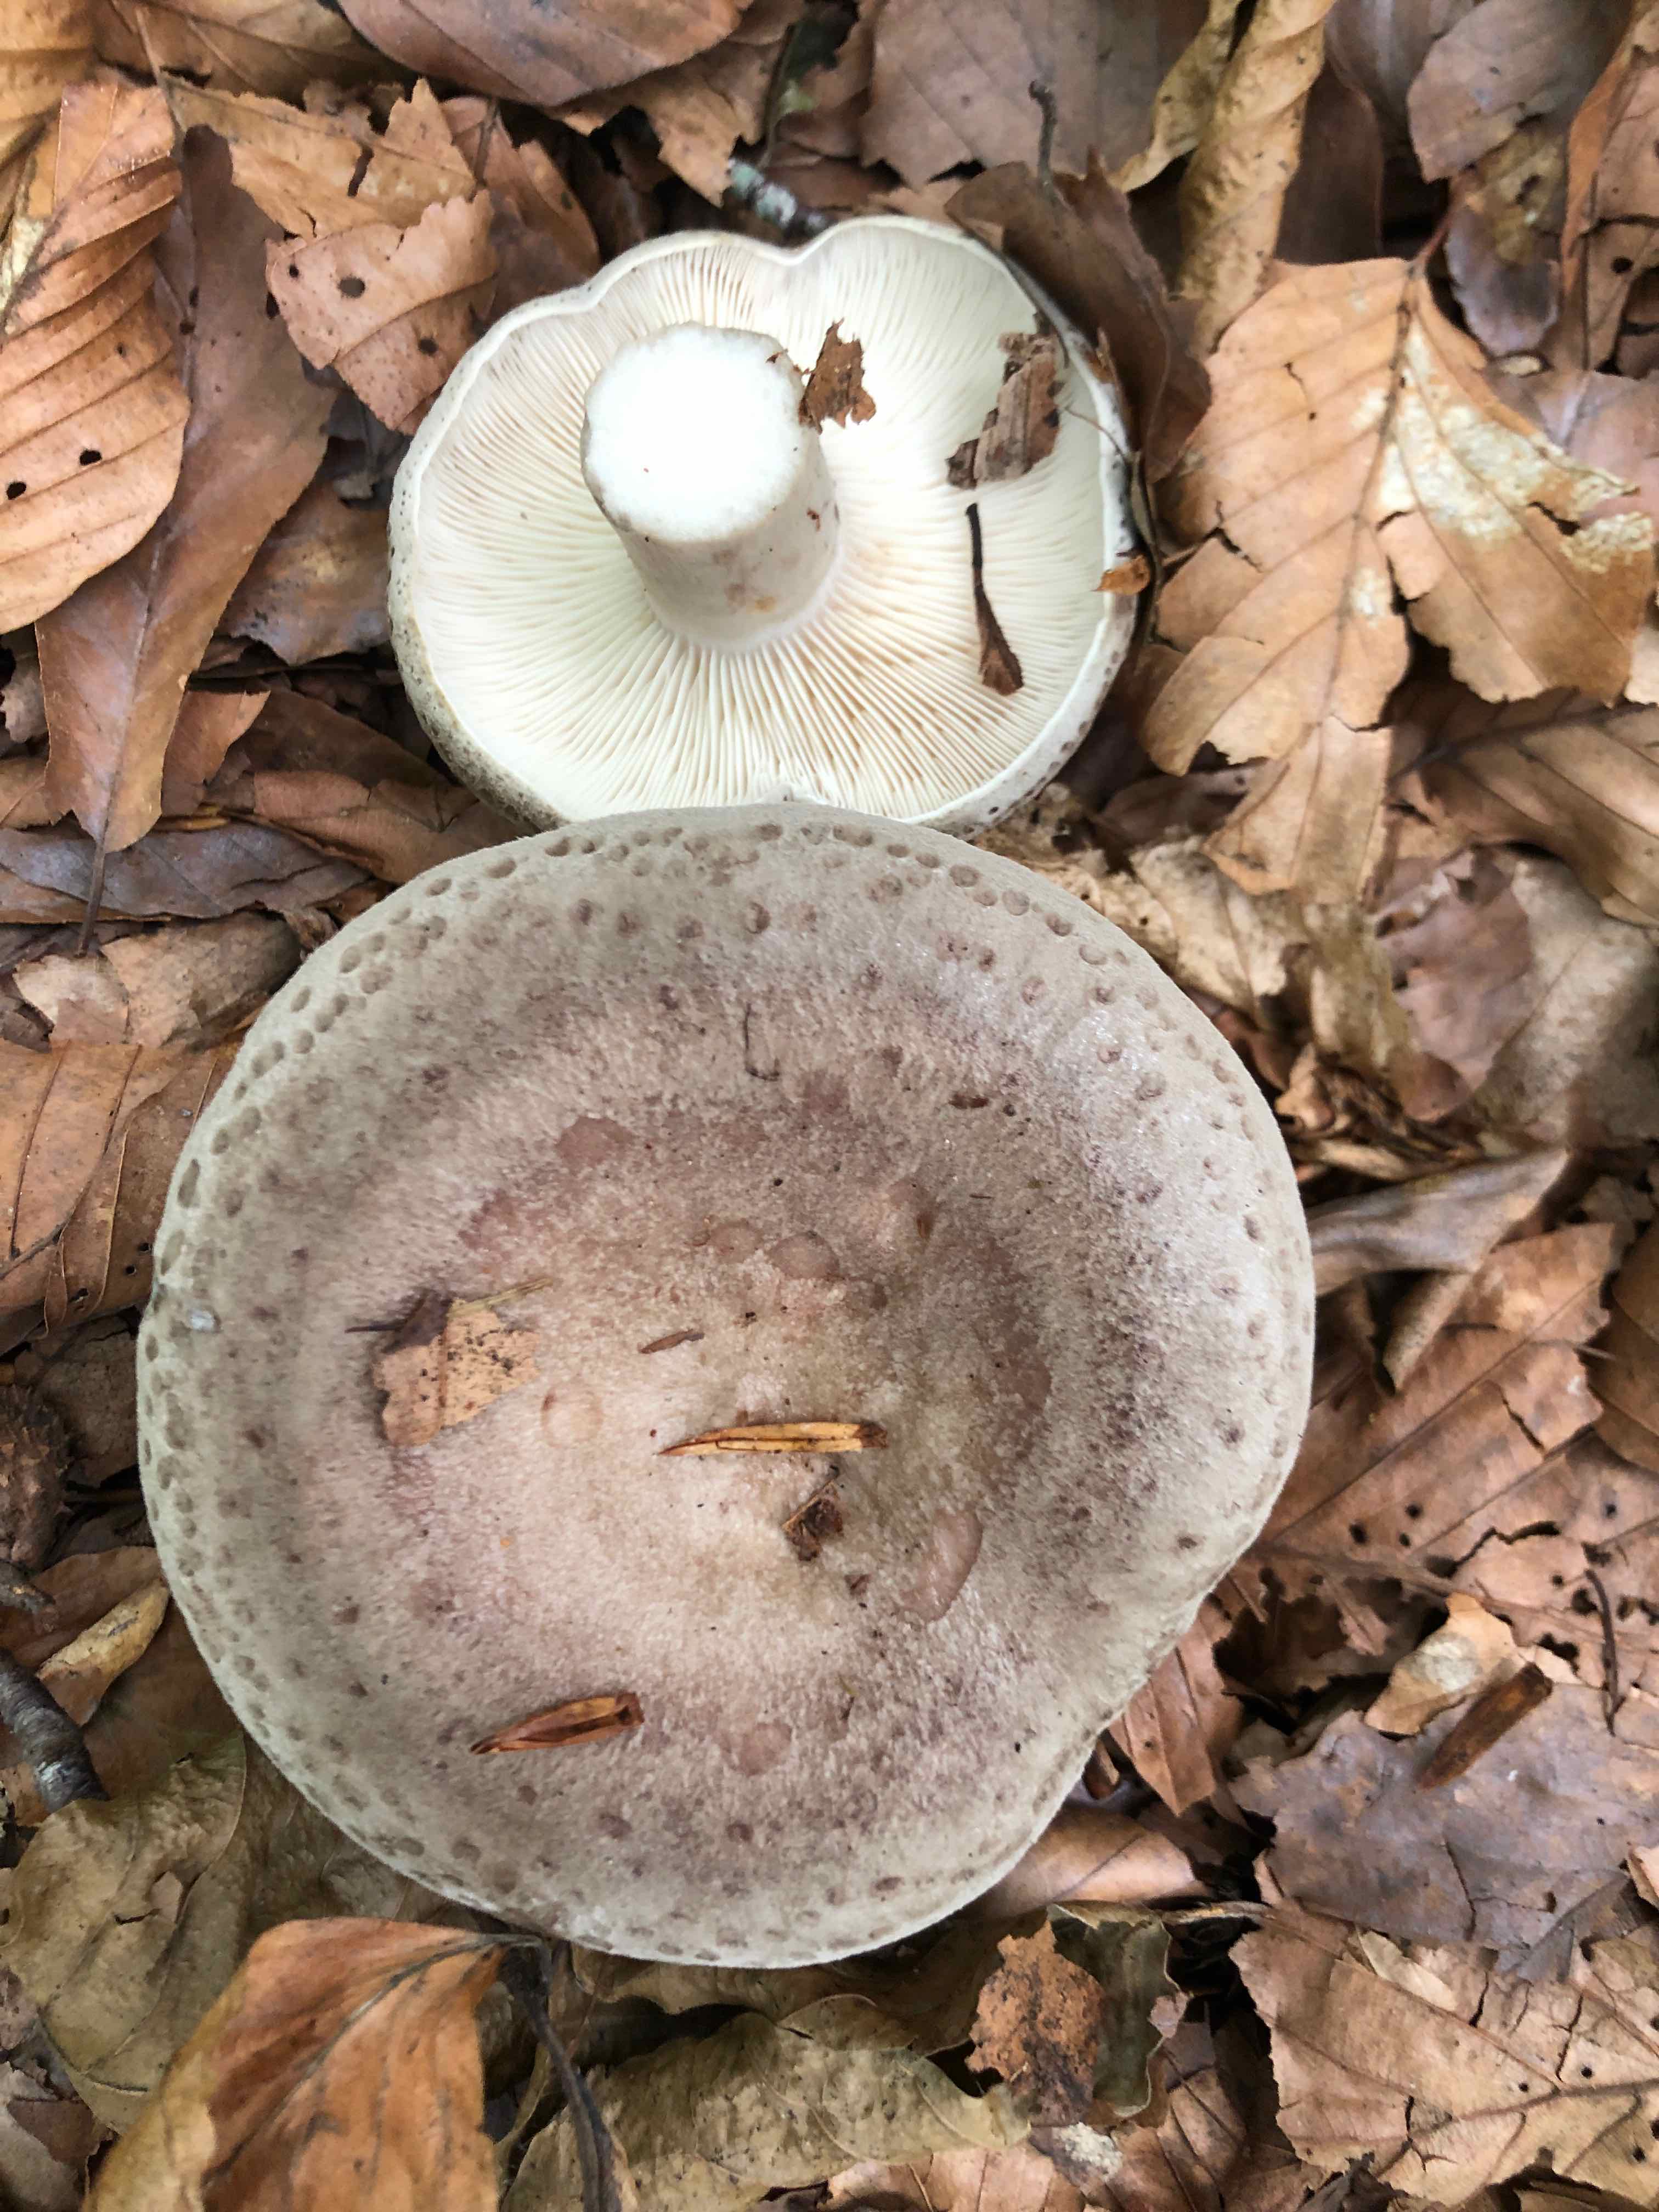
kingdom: Fungi
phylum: Basidiomycota
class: Agaricomycetes
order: Russulales
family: Russulaceae
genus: Lactarius
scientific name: Lactarius blennius
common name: dråbeplettet mælkehat
